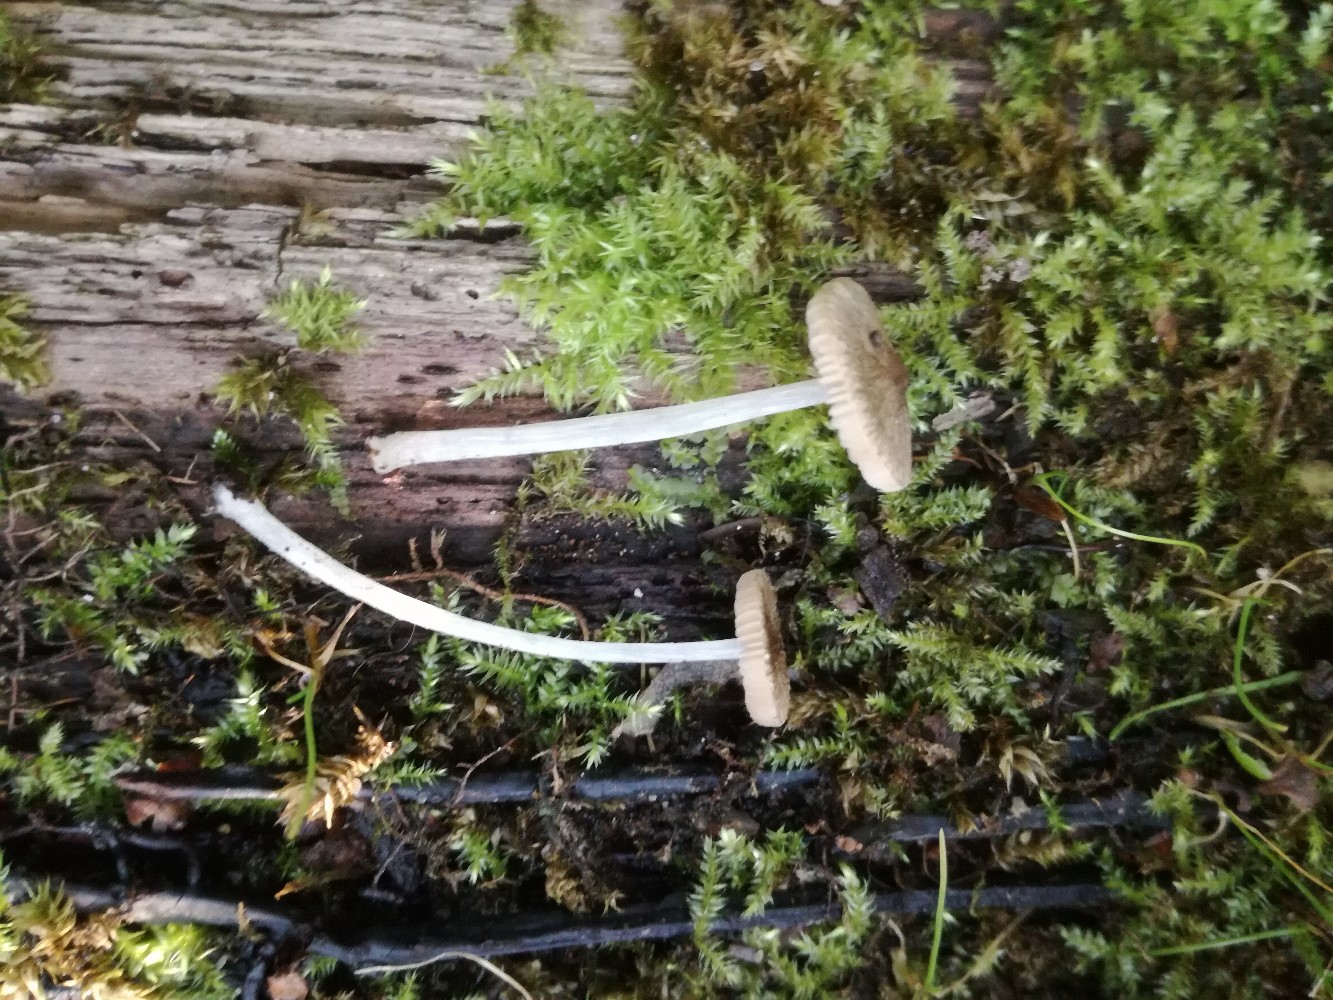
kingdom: Fungi
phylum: Basidiomycota
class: Agaricomycetes
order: Agaricales
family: Pluteaceae
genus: Pluteus
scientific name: Pluteus hispidulus
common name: Fleecy shield
